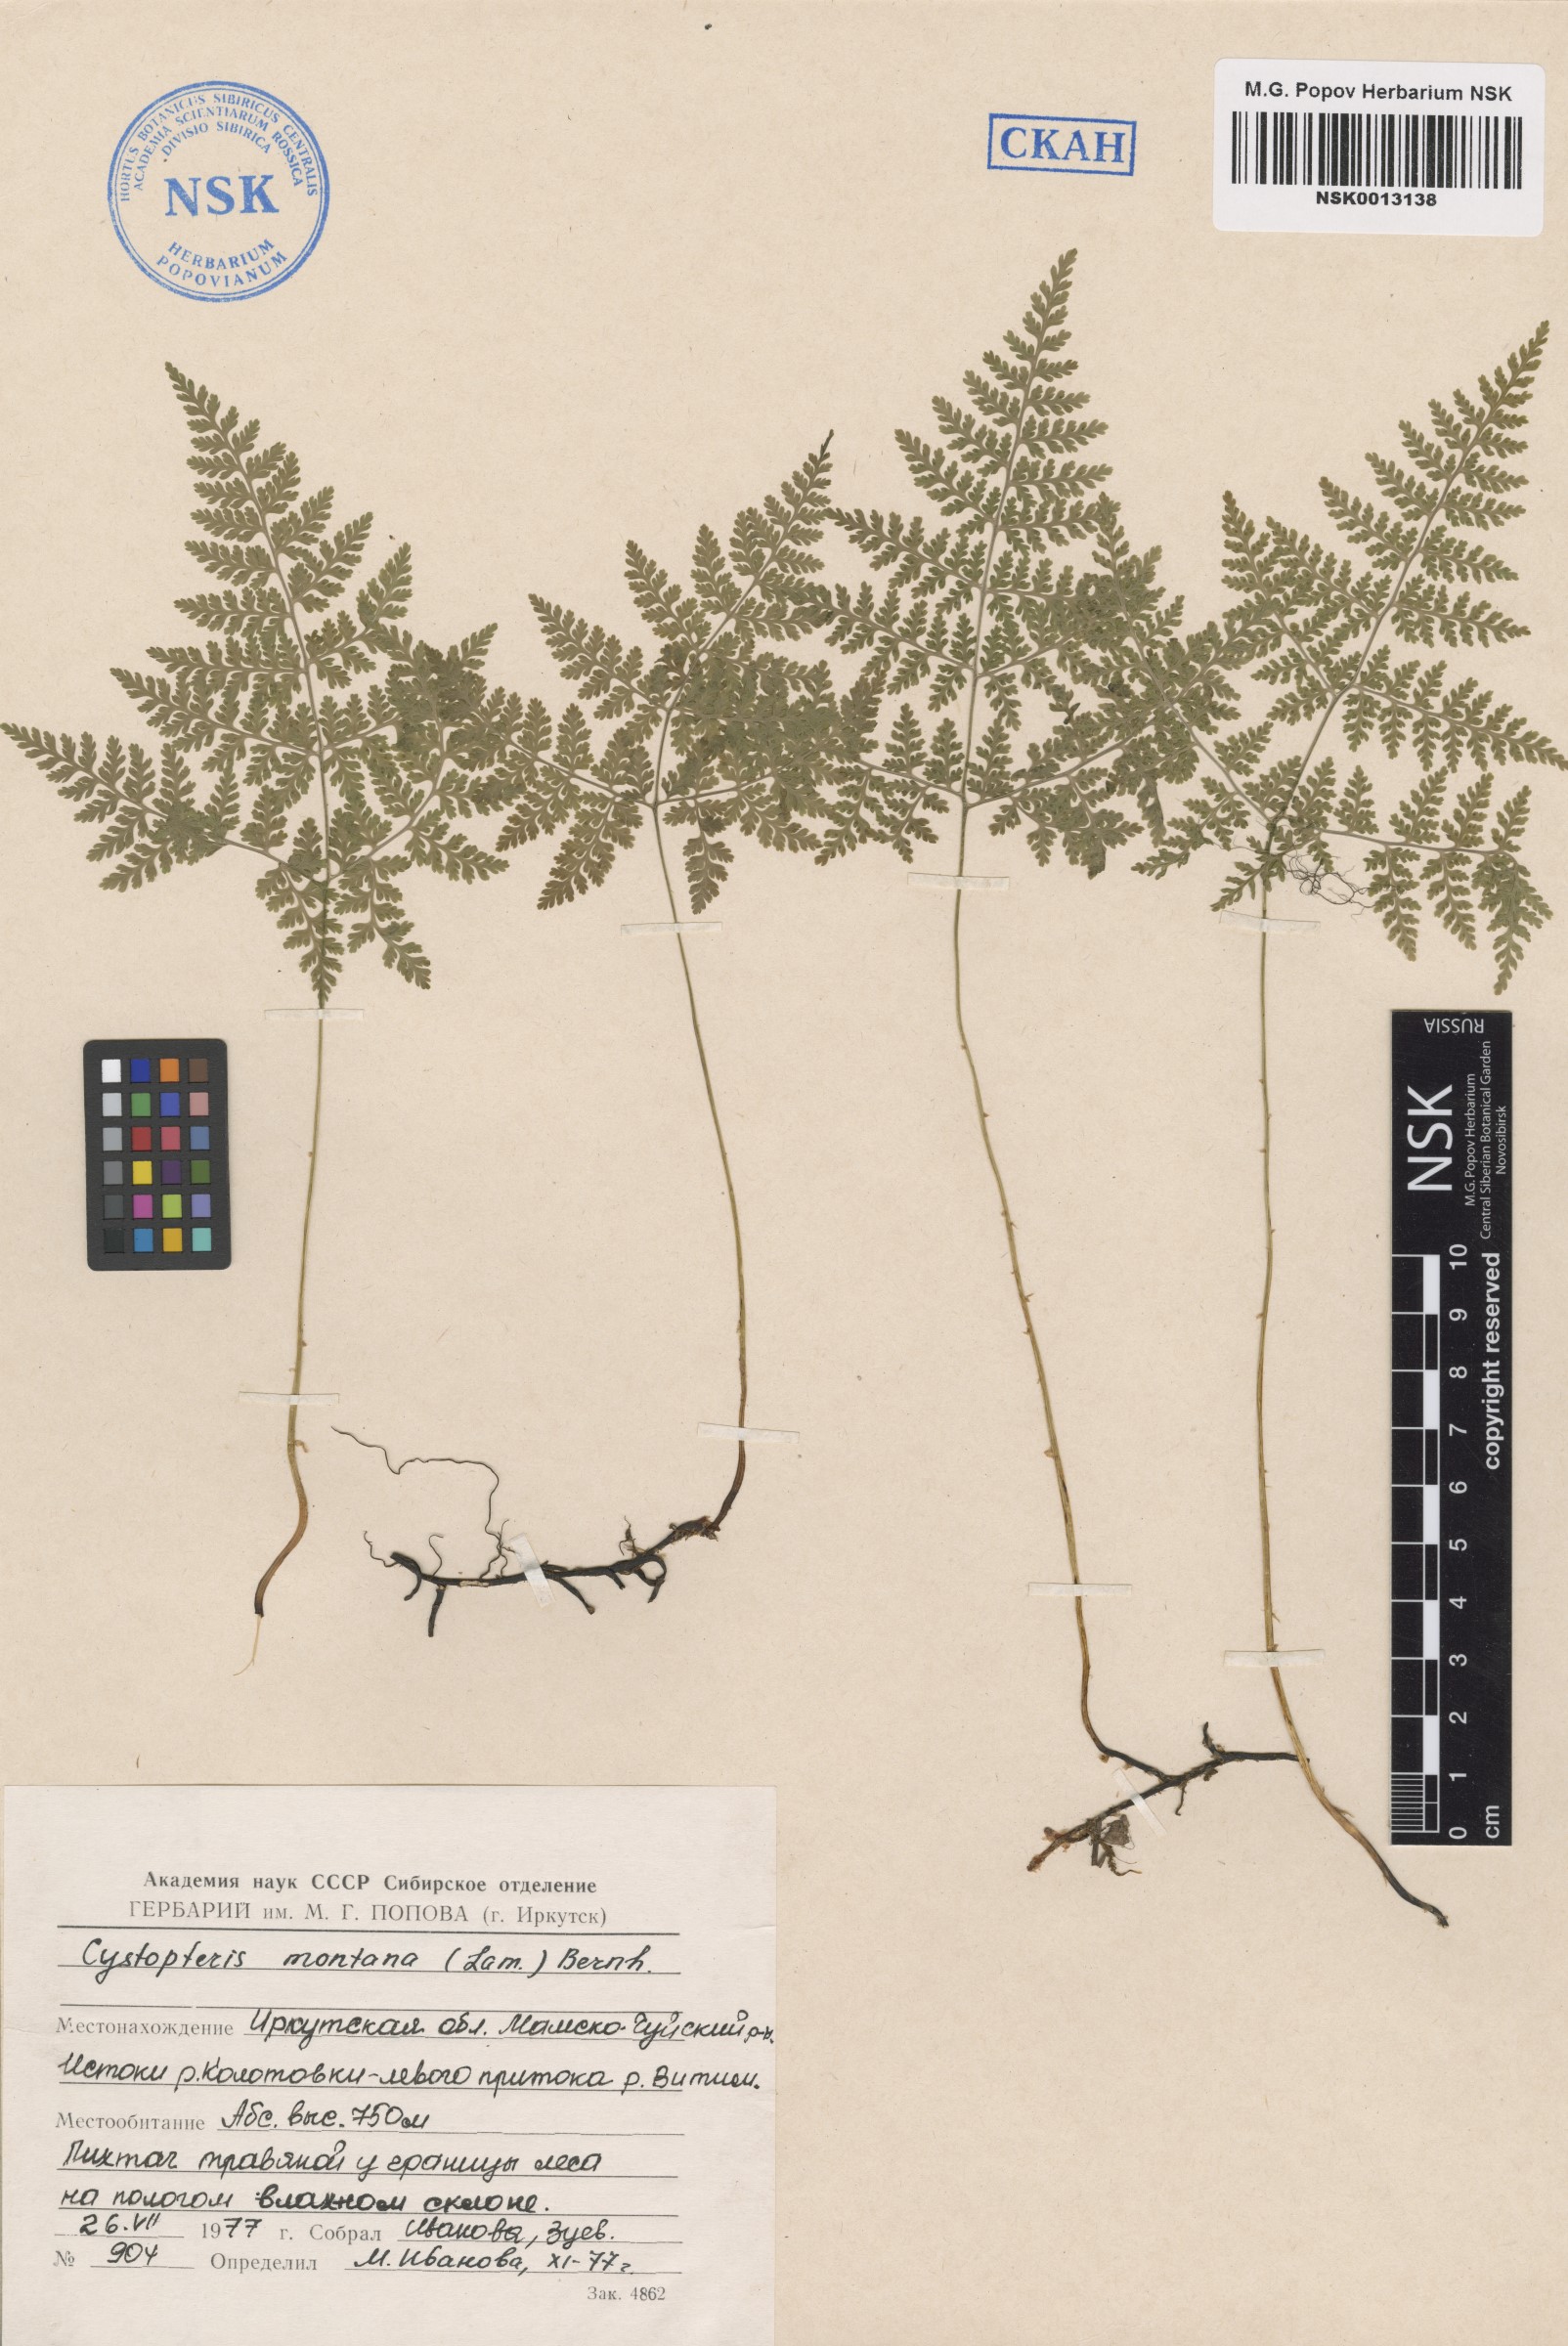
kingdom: Plantae
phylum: Tracheophyta
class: Polypodiopsida
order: Polypodiales
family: Cystopteridaceae
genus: Cystopteris
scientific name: Cystopteris montana
